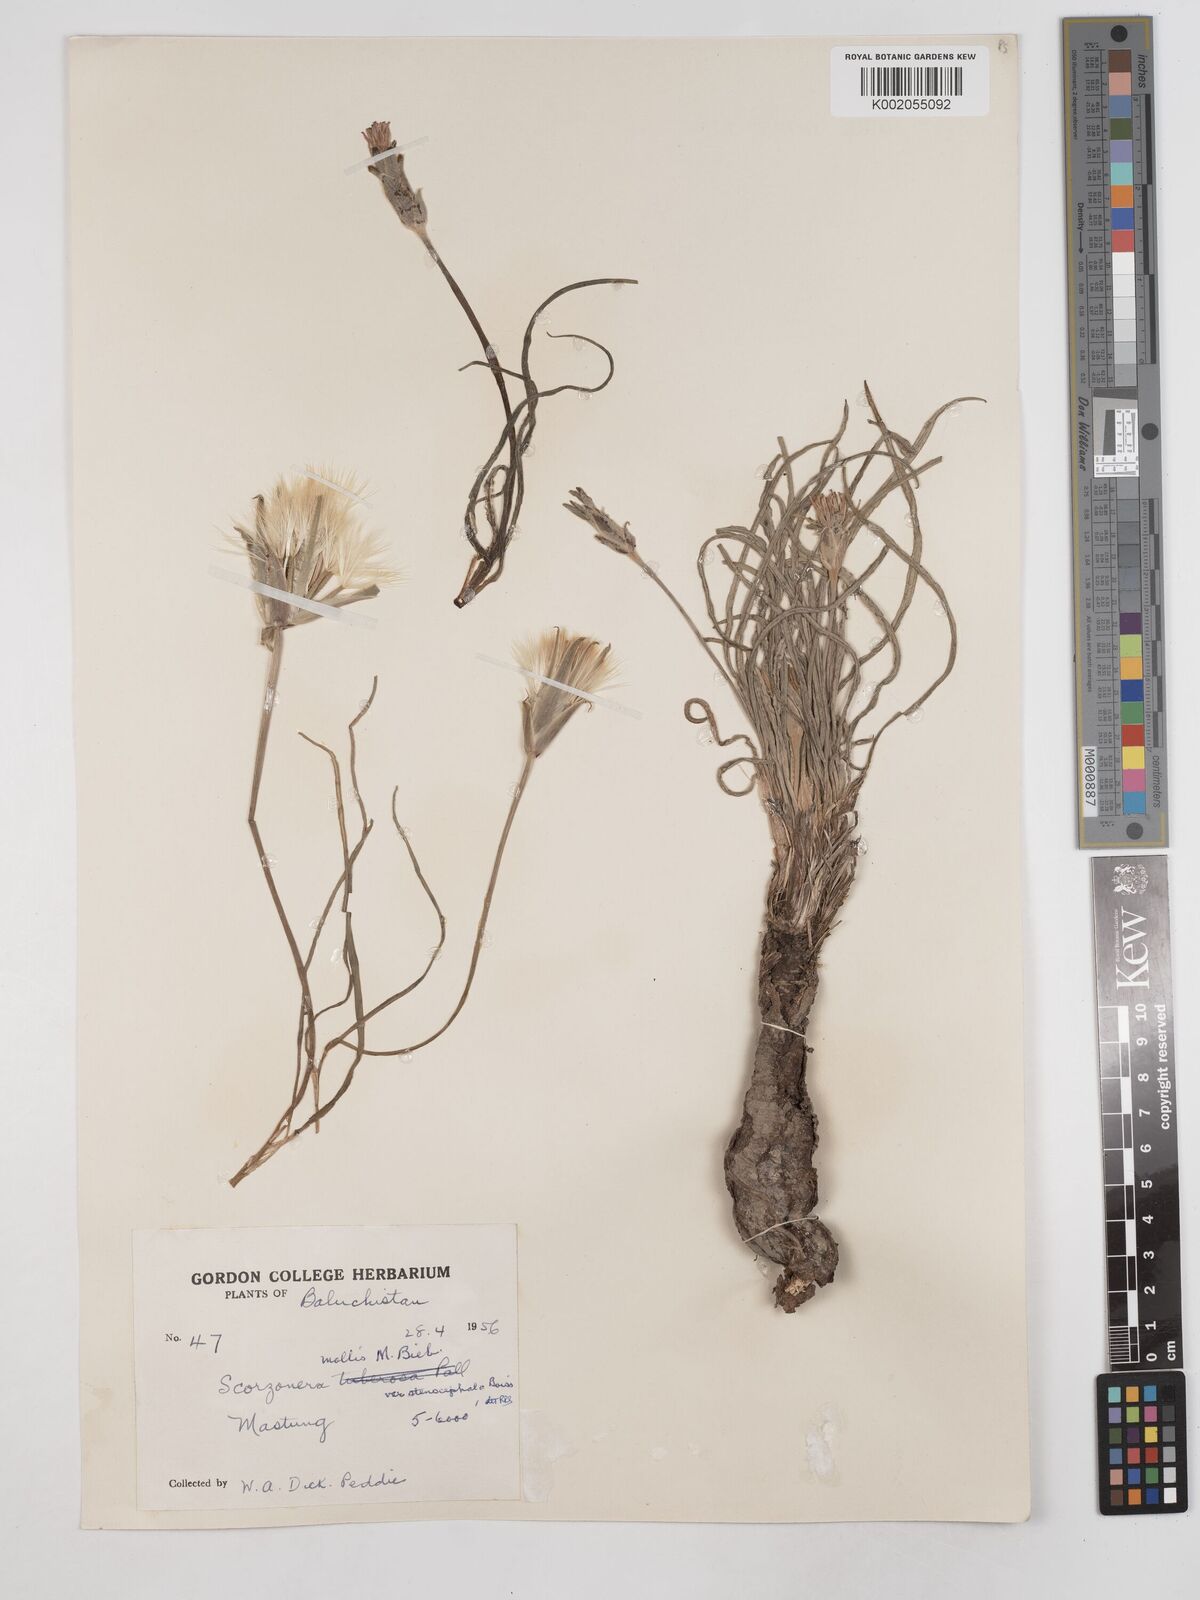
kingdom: Plantae
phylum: Tracheophyta
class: Magnoliopsida
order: Asterales
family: Asteraceae
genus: Candollea
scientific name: Candollea mollis
